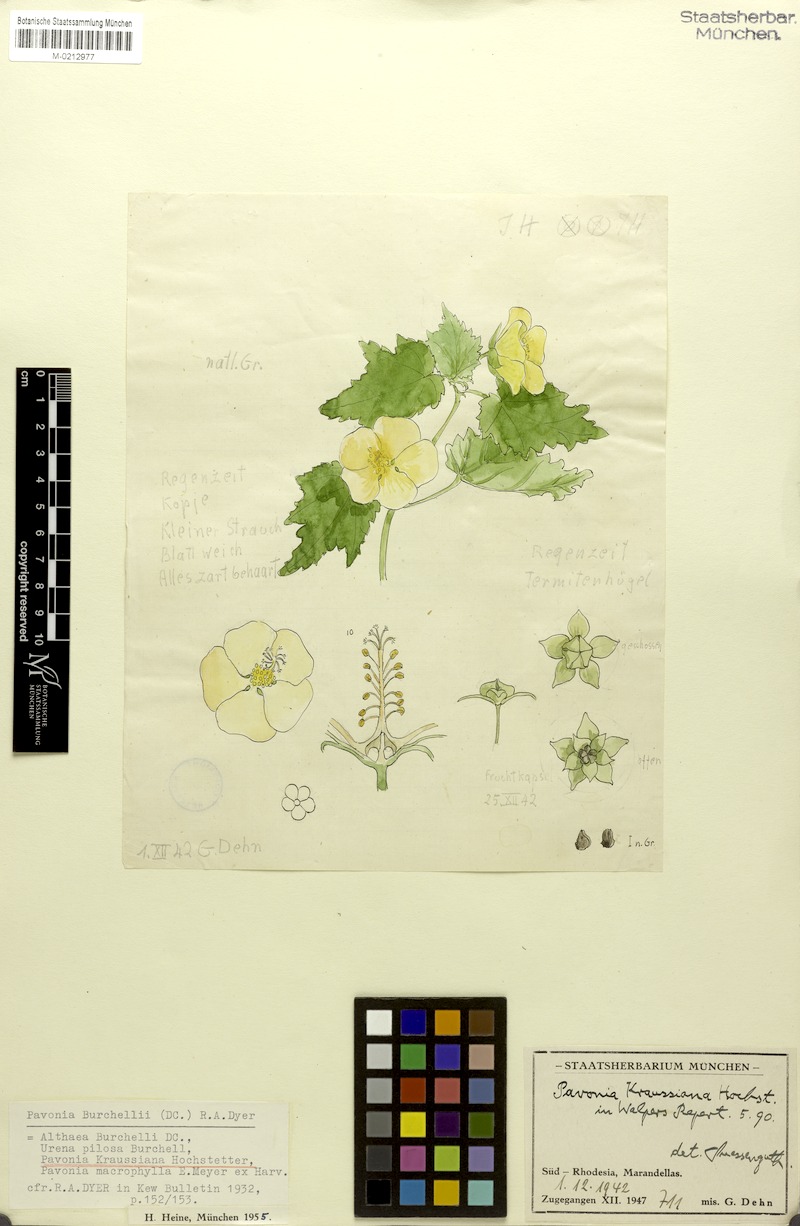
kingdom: Plantae
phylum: Tracheophyta
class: Magnoliopsida
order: Malvales
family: Malvaceae
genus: Pavonia
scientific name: Pavonia burchellii
